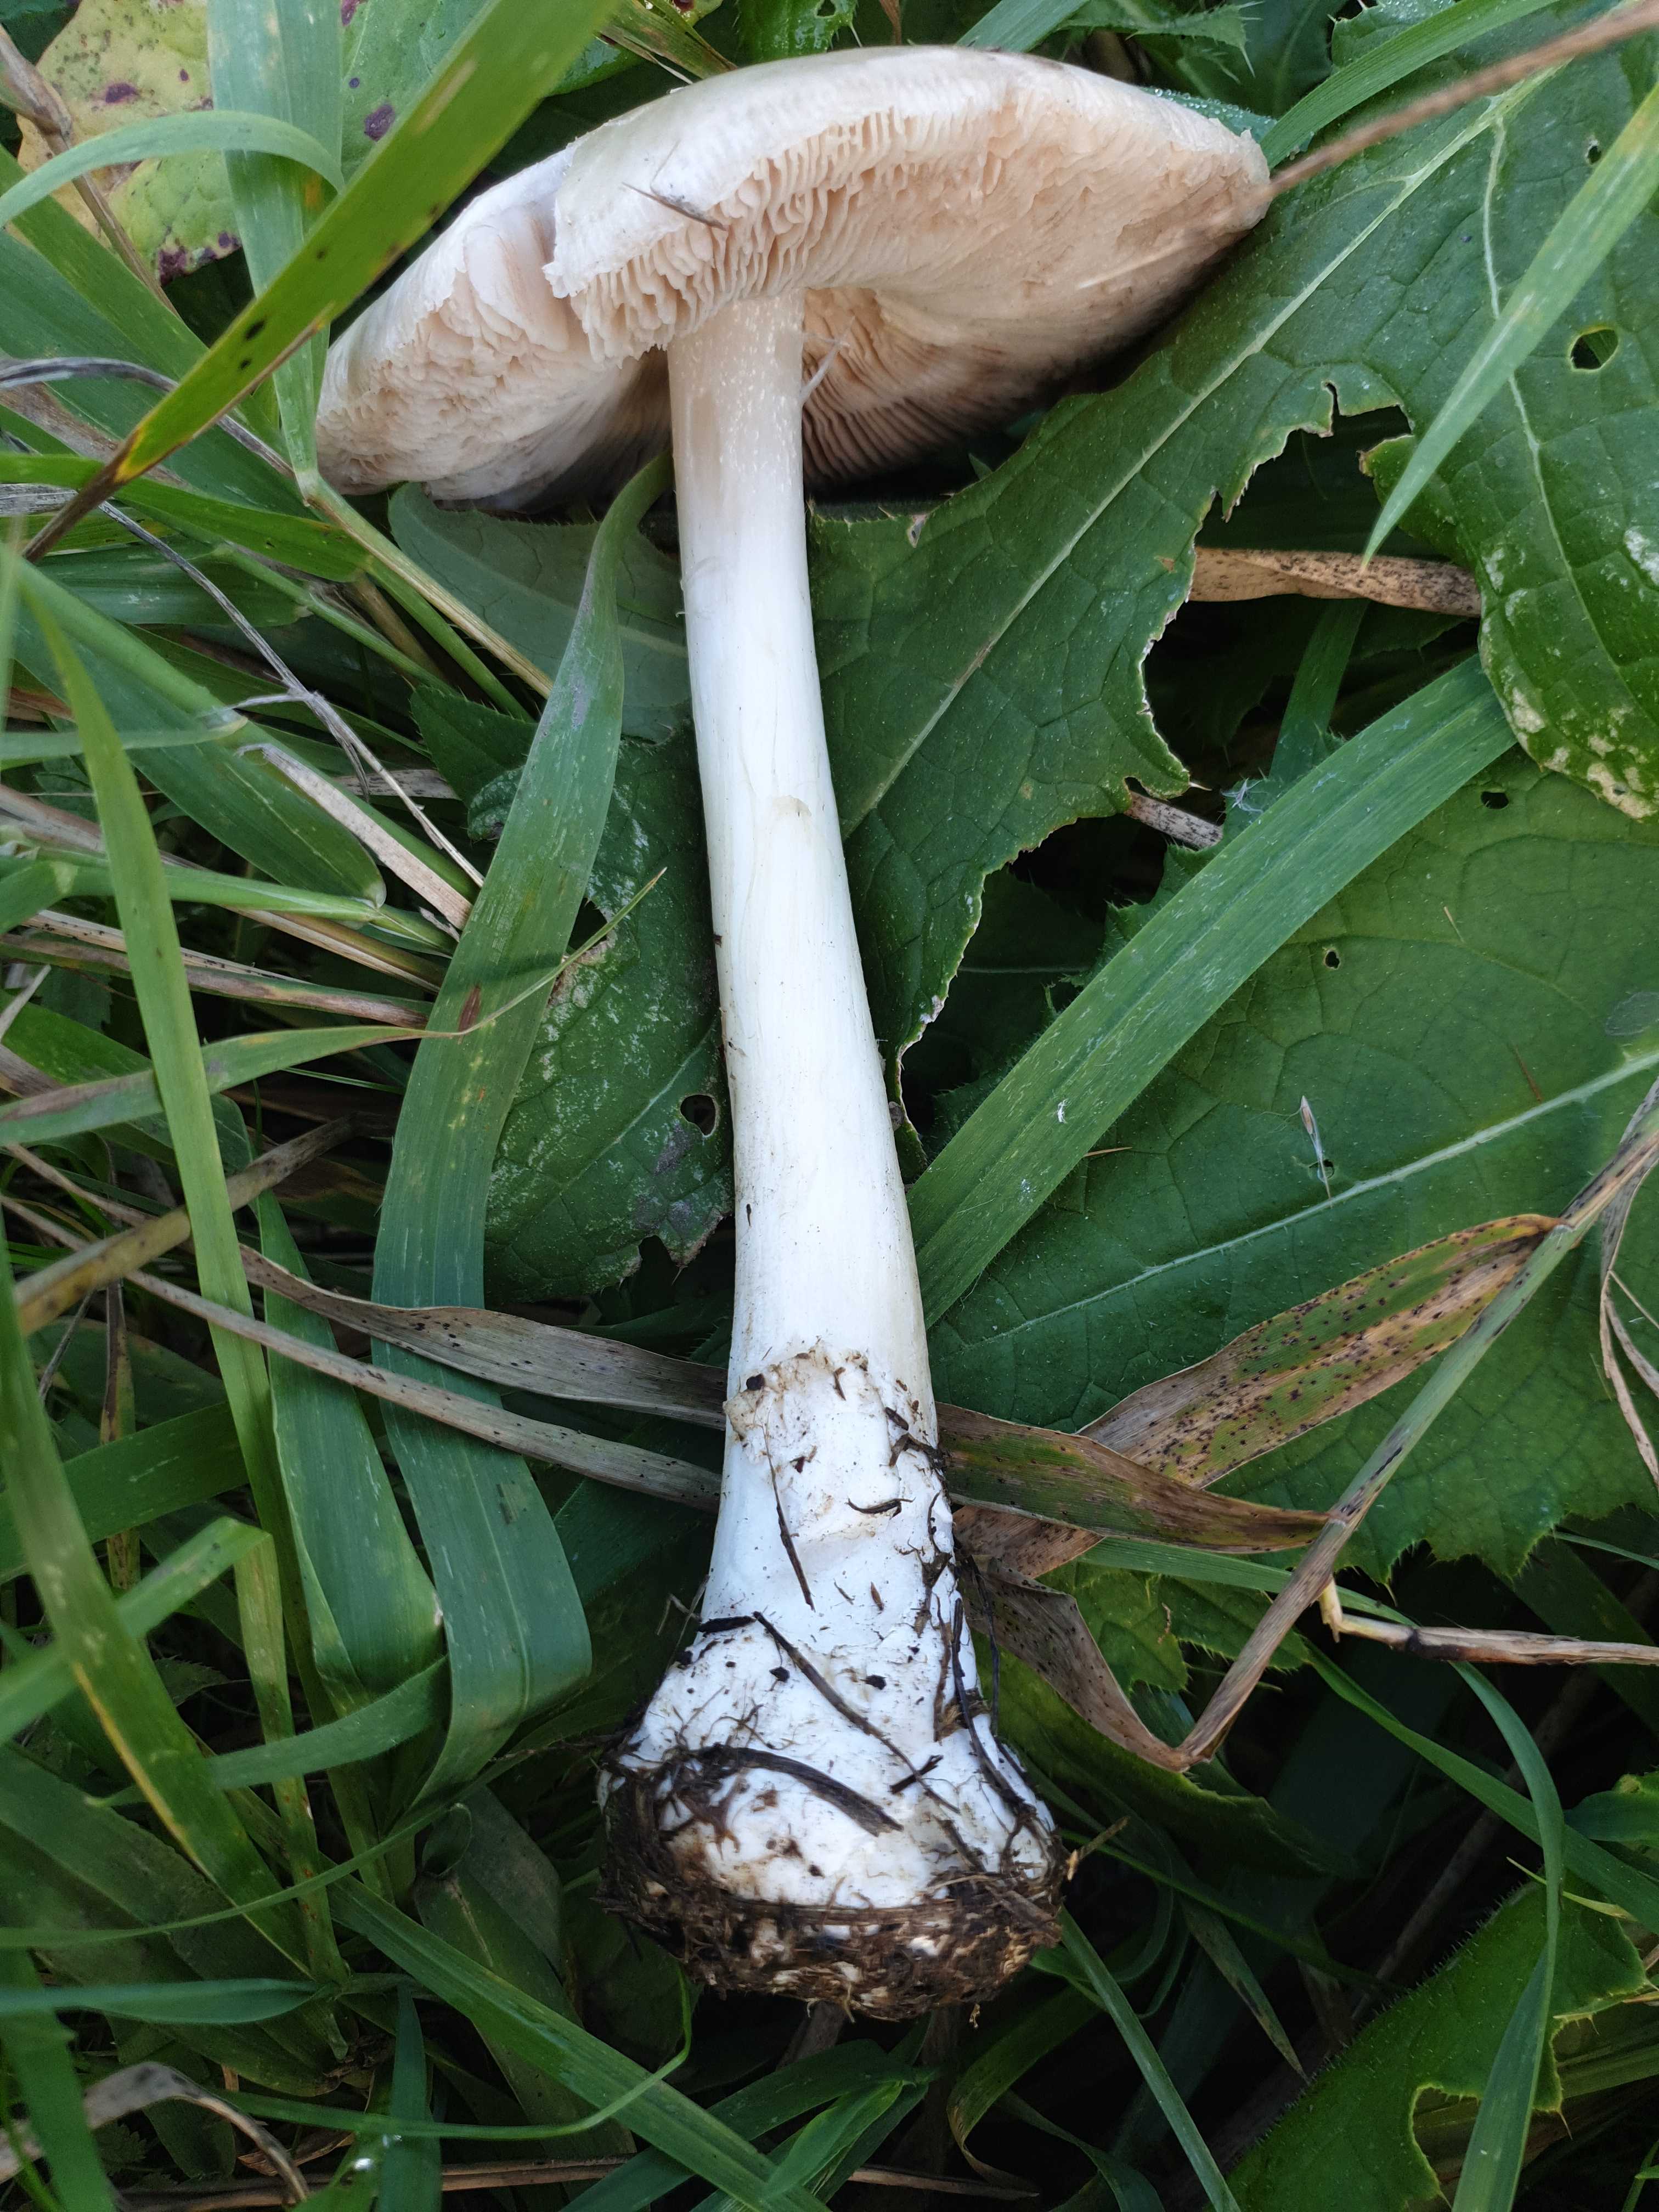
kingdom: Fungi
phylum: Basidiomycota
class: Agaricomycetes
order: Agaricales
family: Pluteaceae
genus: Volvopluteus
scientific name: Volvopluteus gloiocephalus
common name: høj posesvamp
